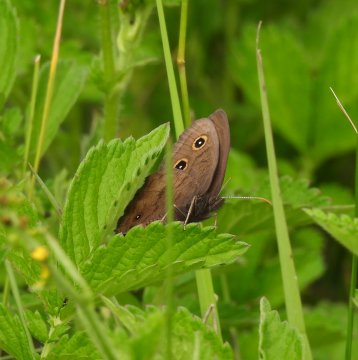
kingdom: Animalia
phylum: Arthropoda
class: Insecta
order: Lepidoptera
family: Nymphalidae
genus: Cercyonis
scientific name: Cercyonis pegala
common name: Common Wood-Nymph
